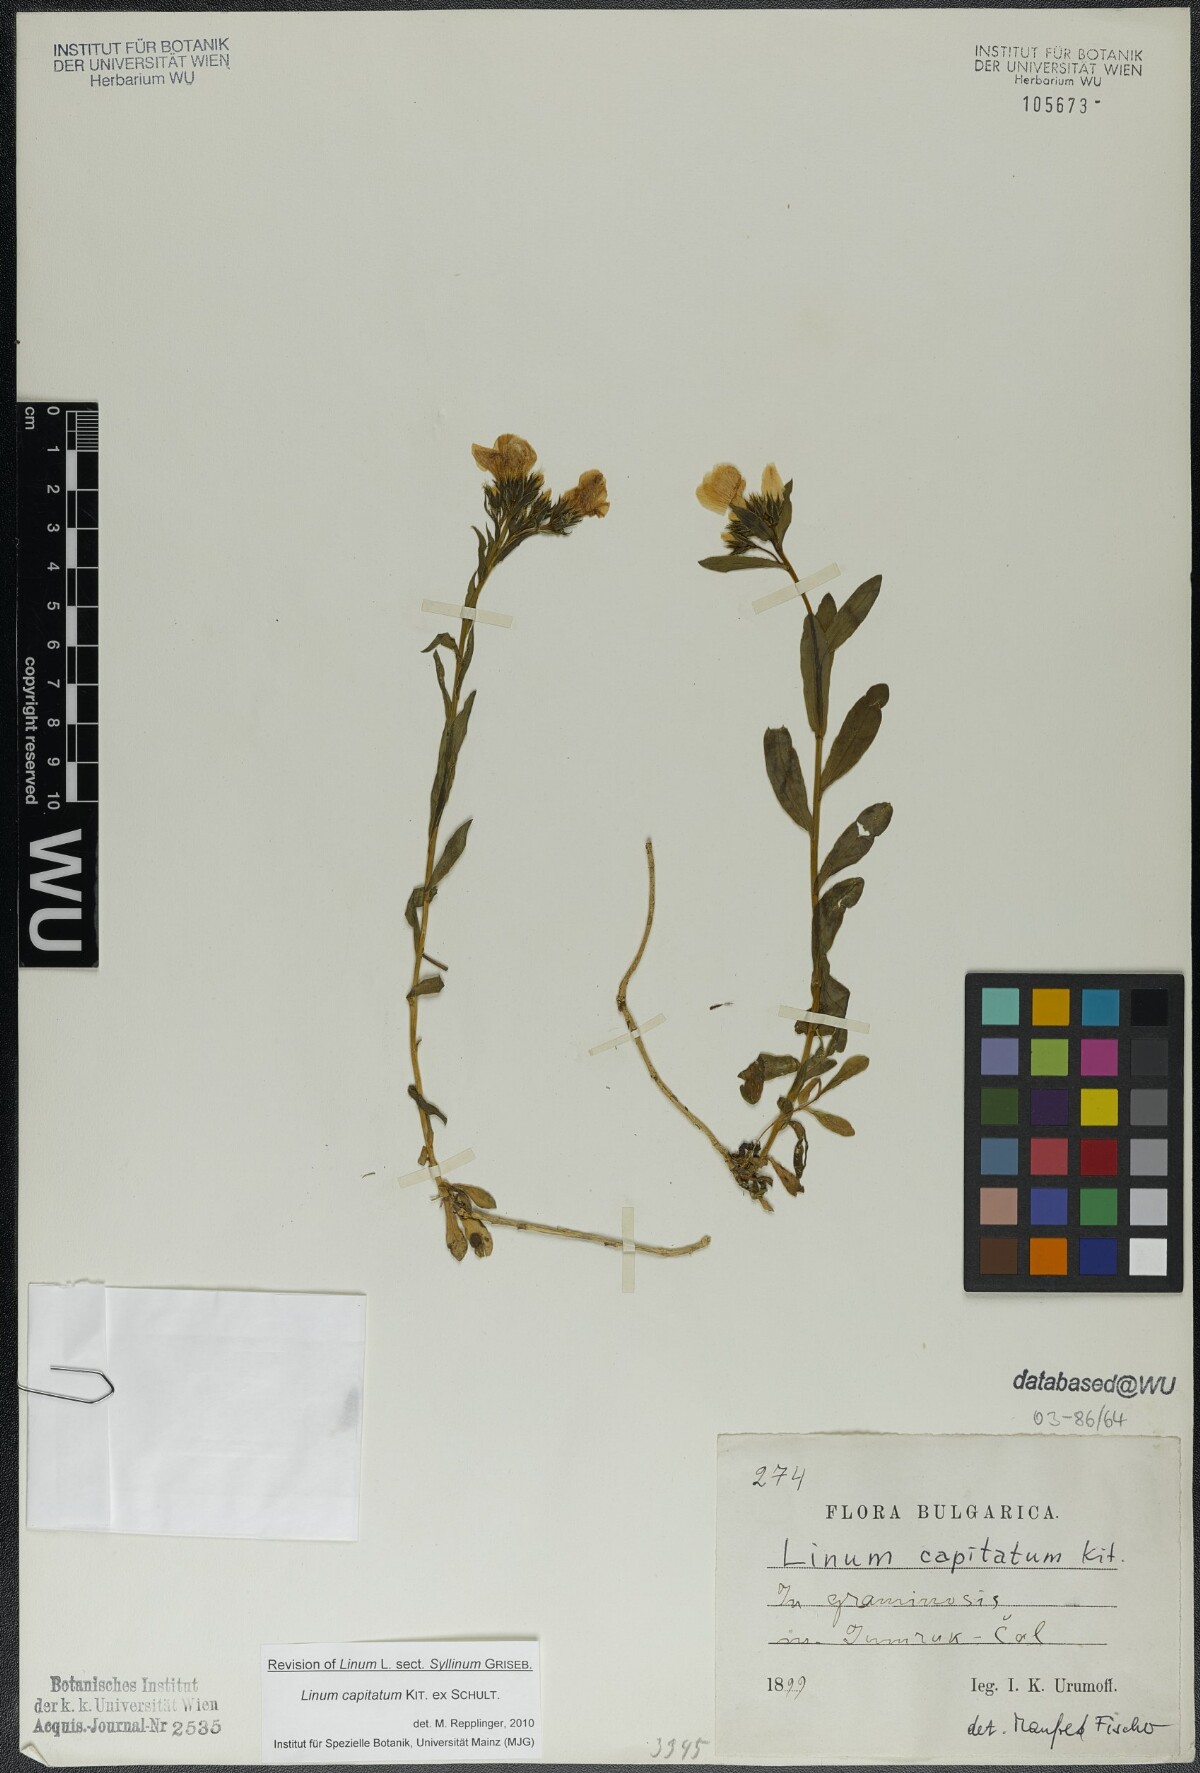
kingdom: Plantae
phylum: Tracheophyta
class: Magnoliopsida
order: Malpighiales
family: Linaceae
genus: Linum
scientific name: Linum capitatum
